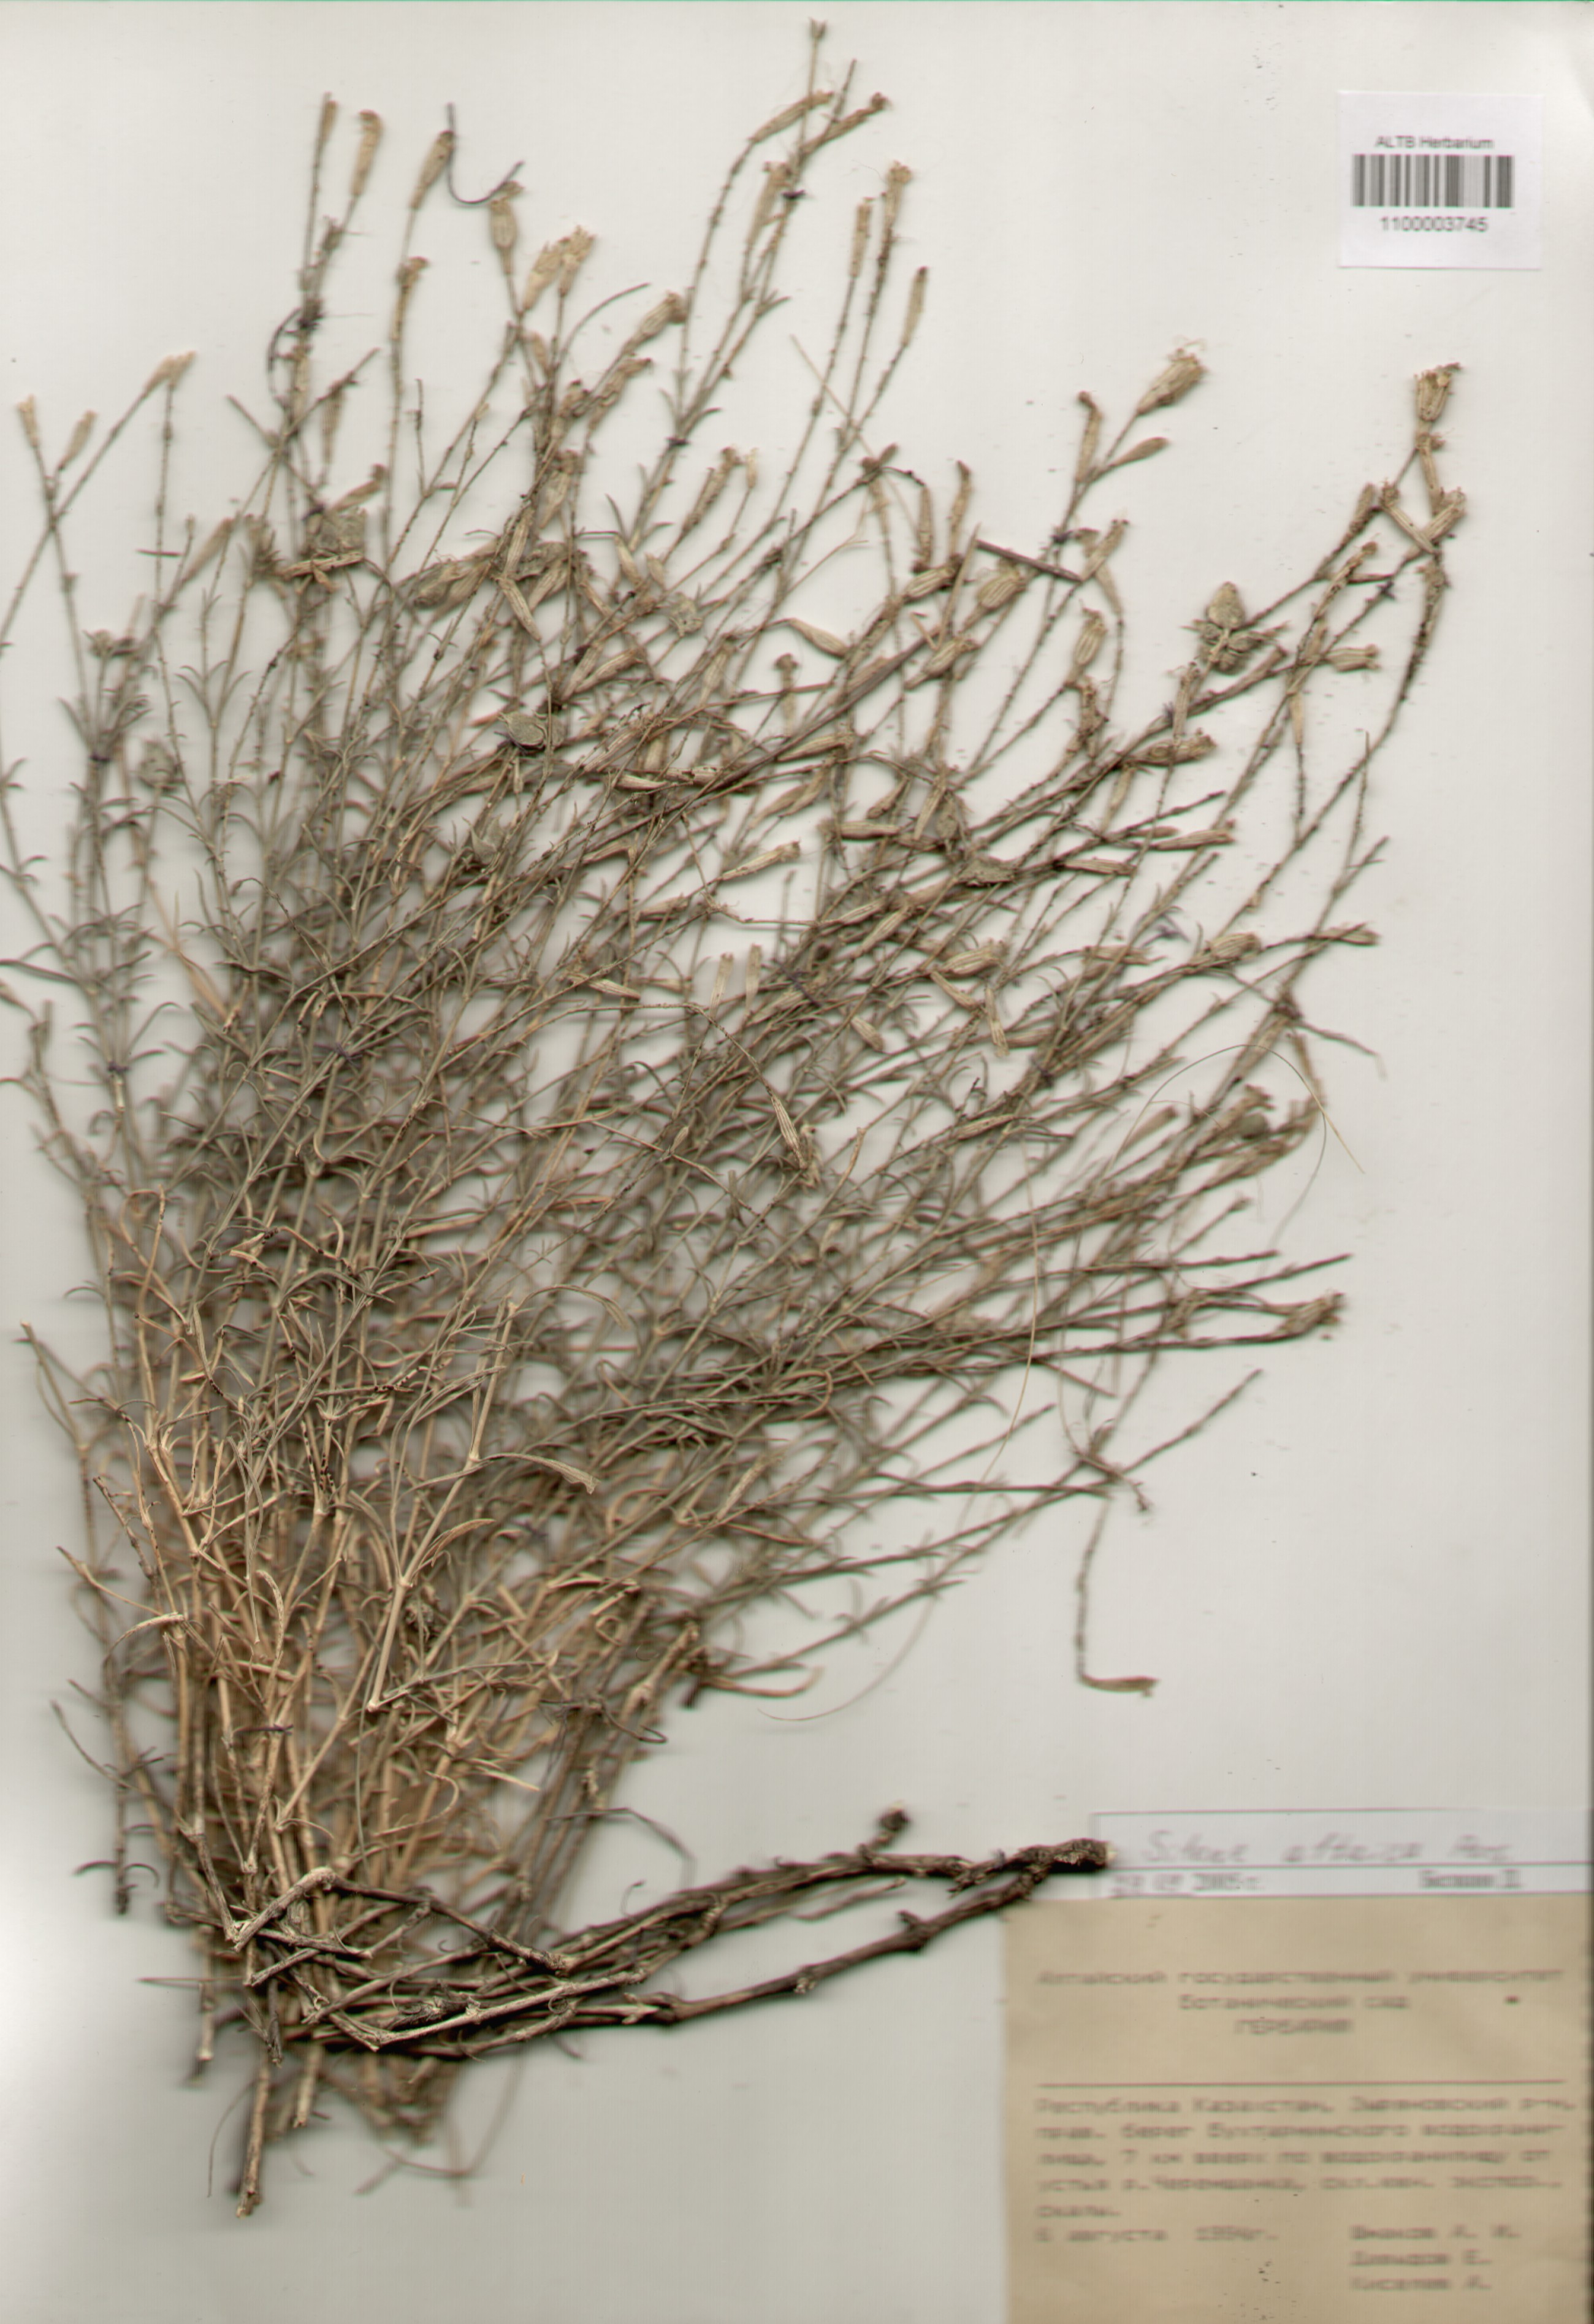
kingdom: Plantae
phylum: Tracheophyta
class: Magnoliopsida
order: Caryophyllales
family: Caryophyllaceae
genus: Silene
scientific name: Silene altaica
